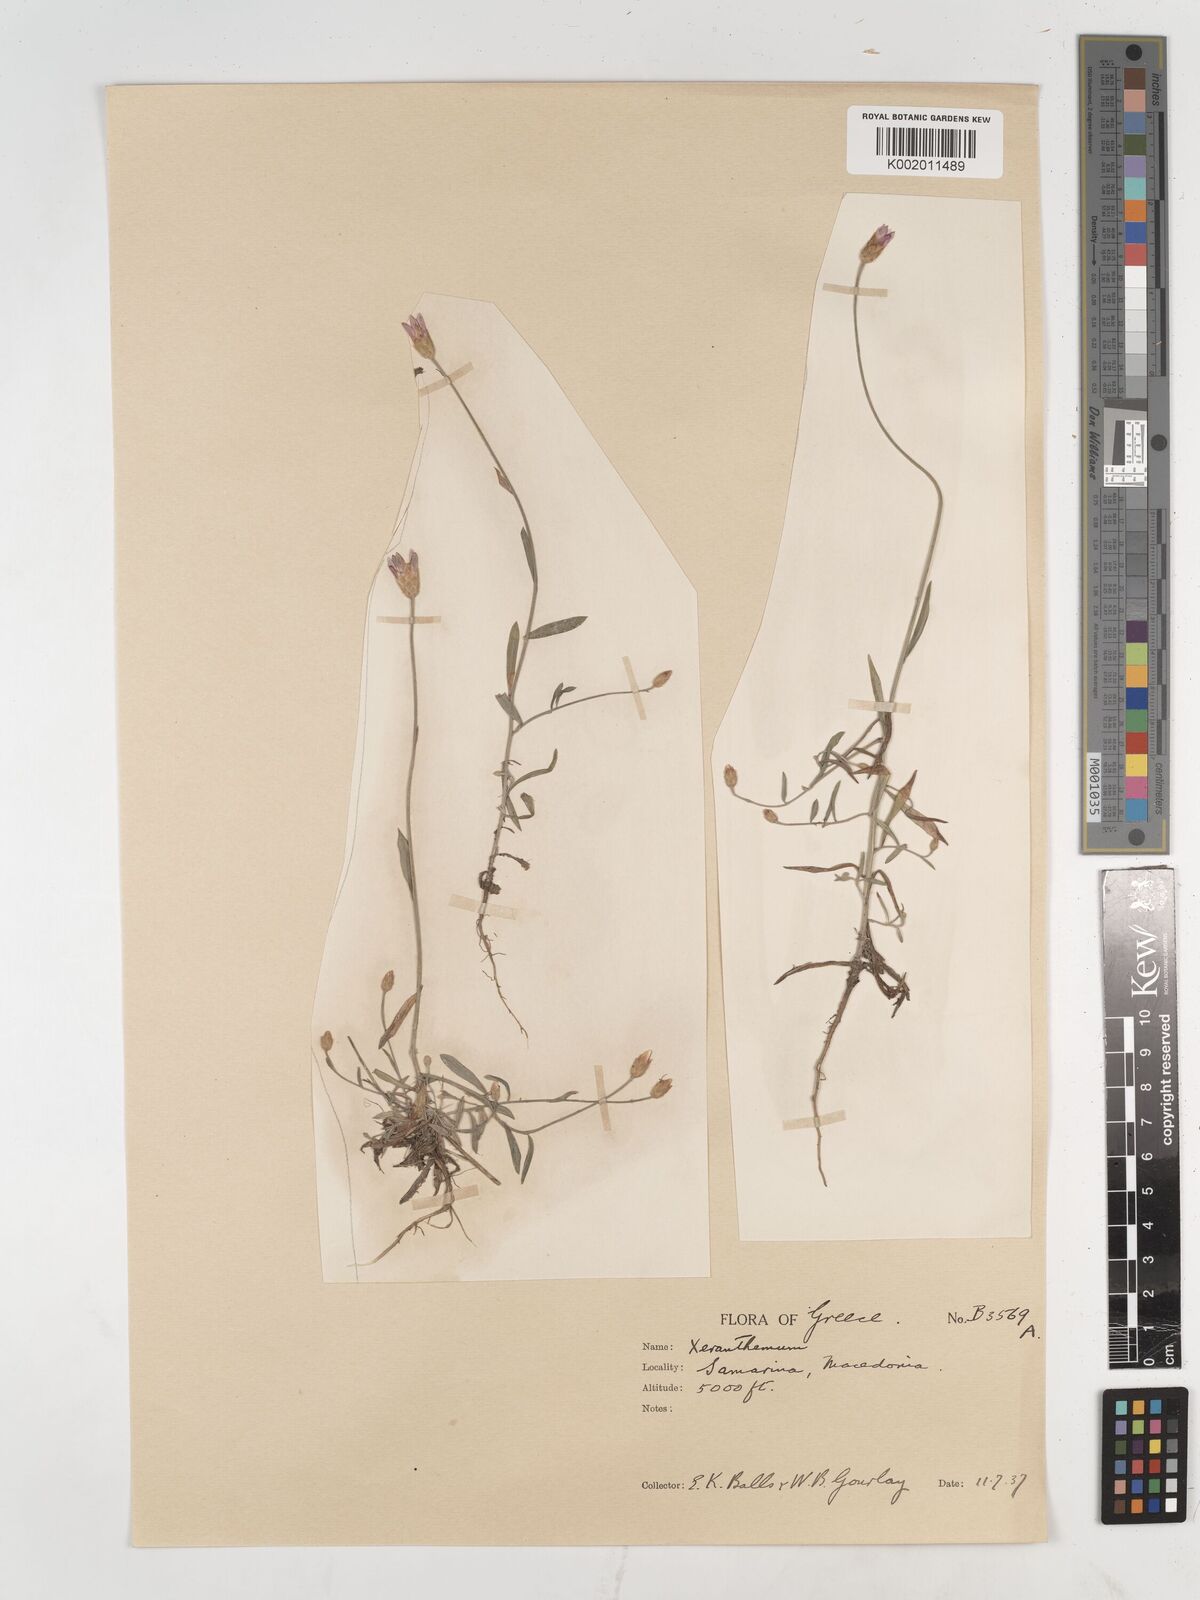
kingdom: Plantae
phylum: Tracheophyta
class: Magnoliopsida
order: Asterales
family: Asteraceae
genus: Xeranthemum
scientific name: Xeranthemum
